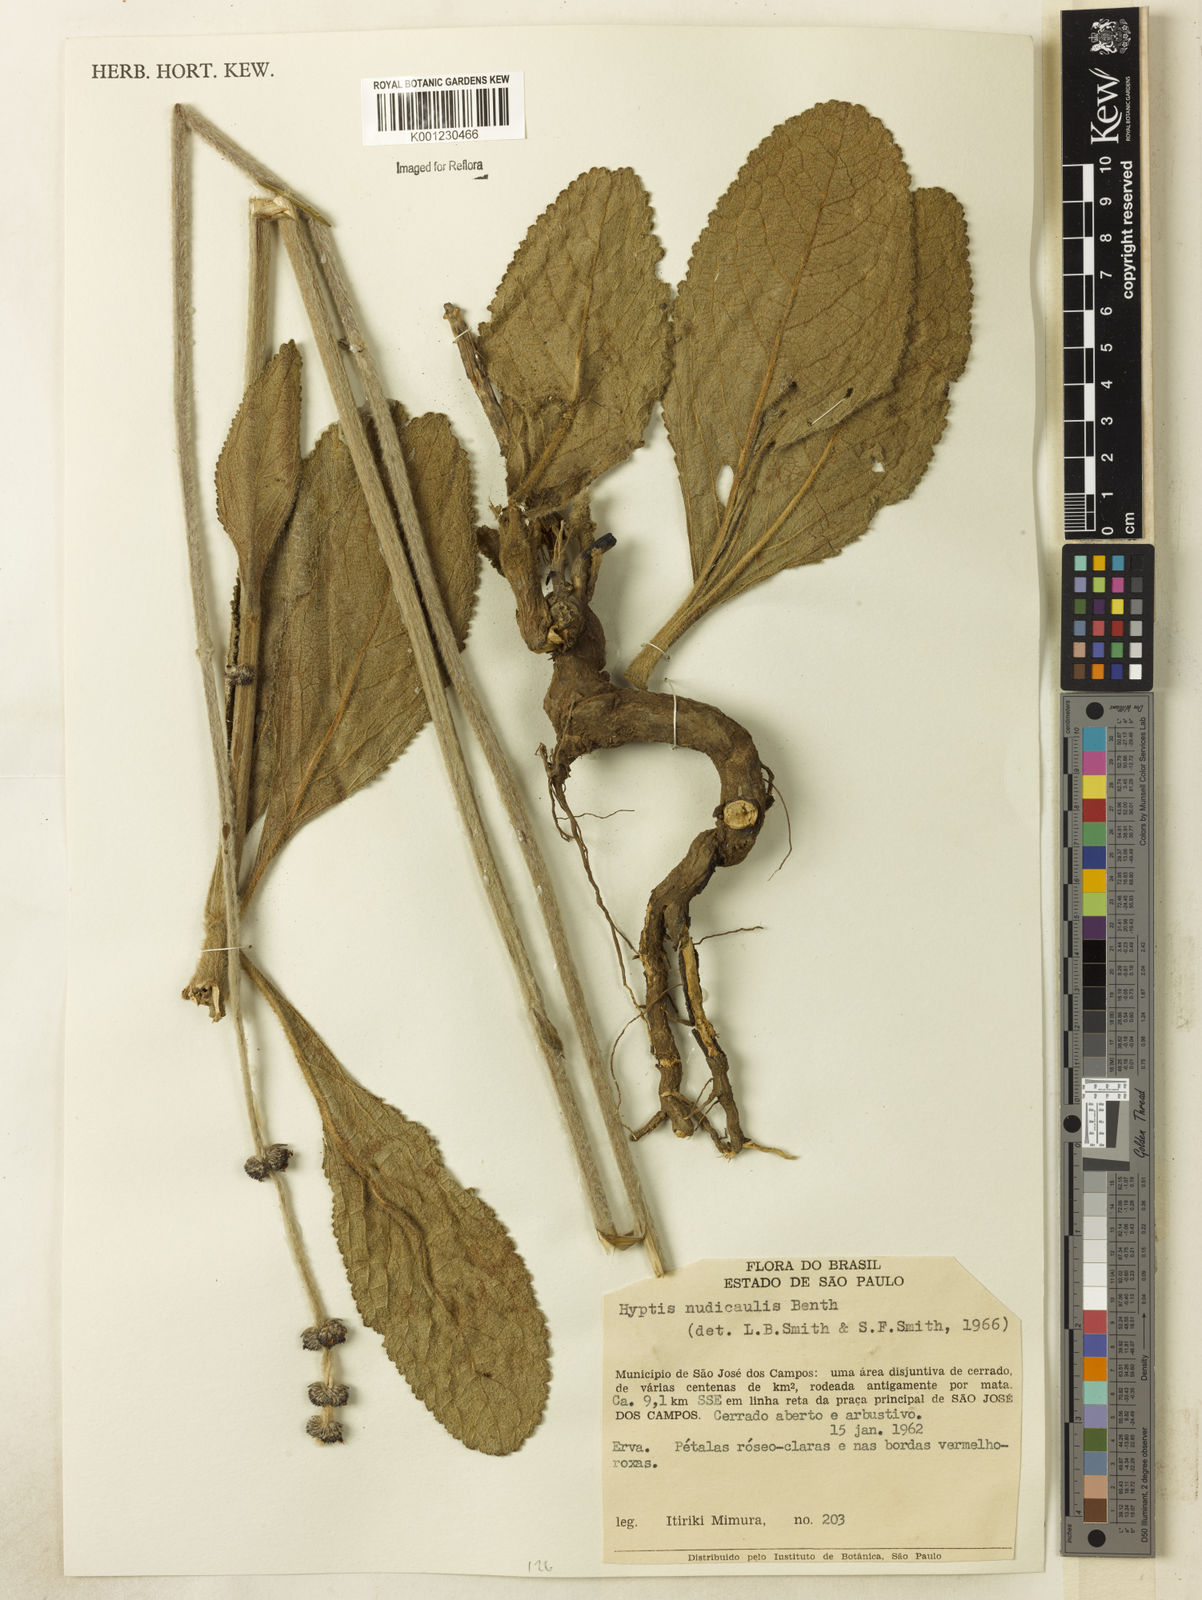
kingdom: Plantae
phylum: Tracheophyta
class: Magnoliopsida
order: Lamiales
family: Lamiaceae
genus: Hyptis
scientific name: Hyptis nudicaulis
